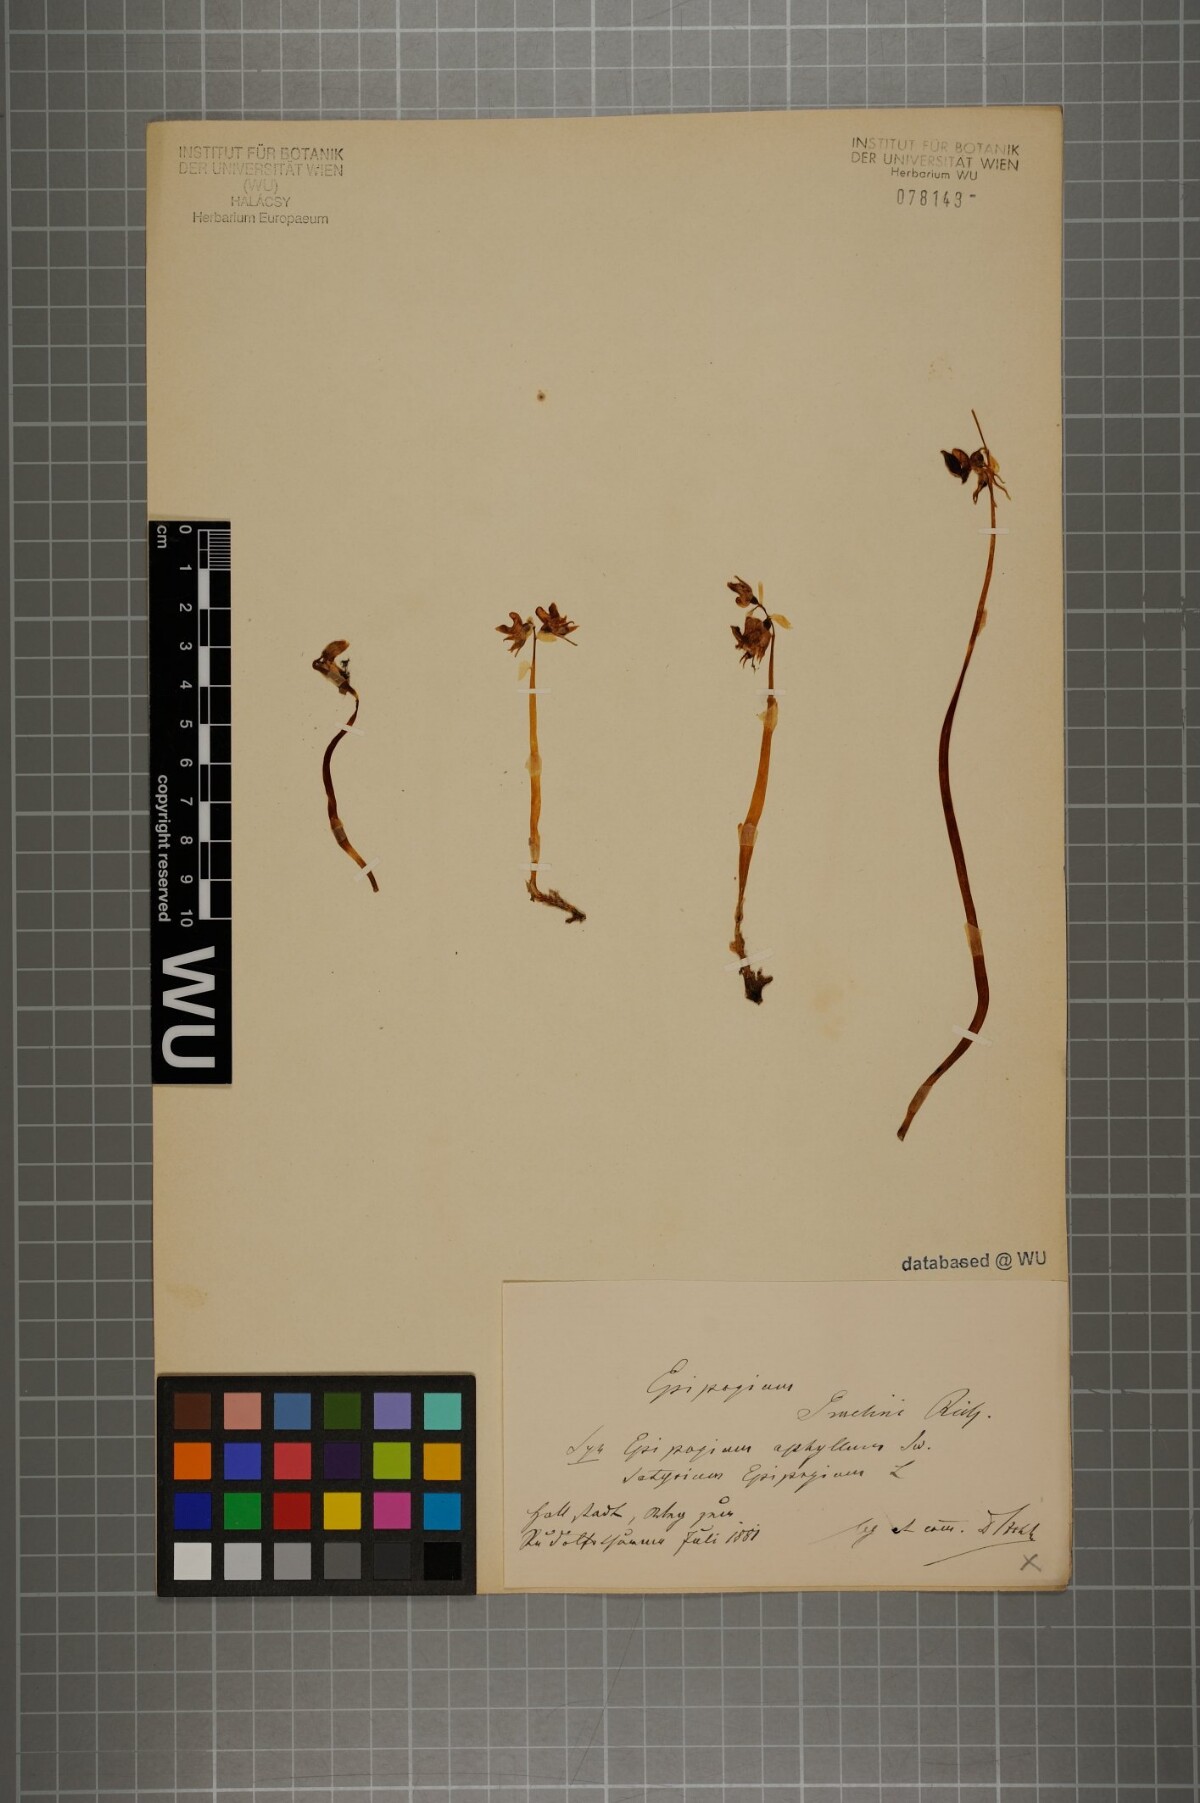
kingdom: Plantae
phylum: Tracheophyta
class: Liliopsida
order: Asparagales
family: Orchidaceae
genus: Epipogium
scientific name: Epipogium aphyllum
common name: Ghost orchid
